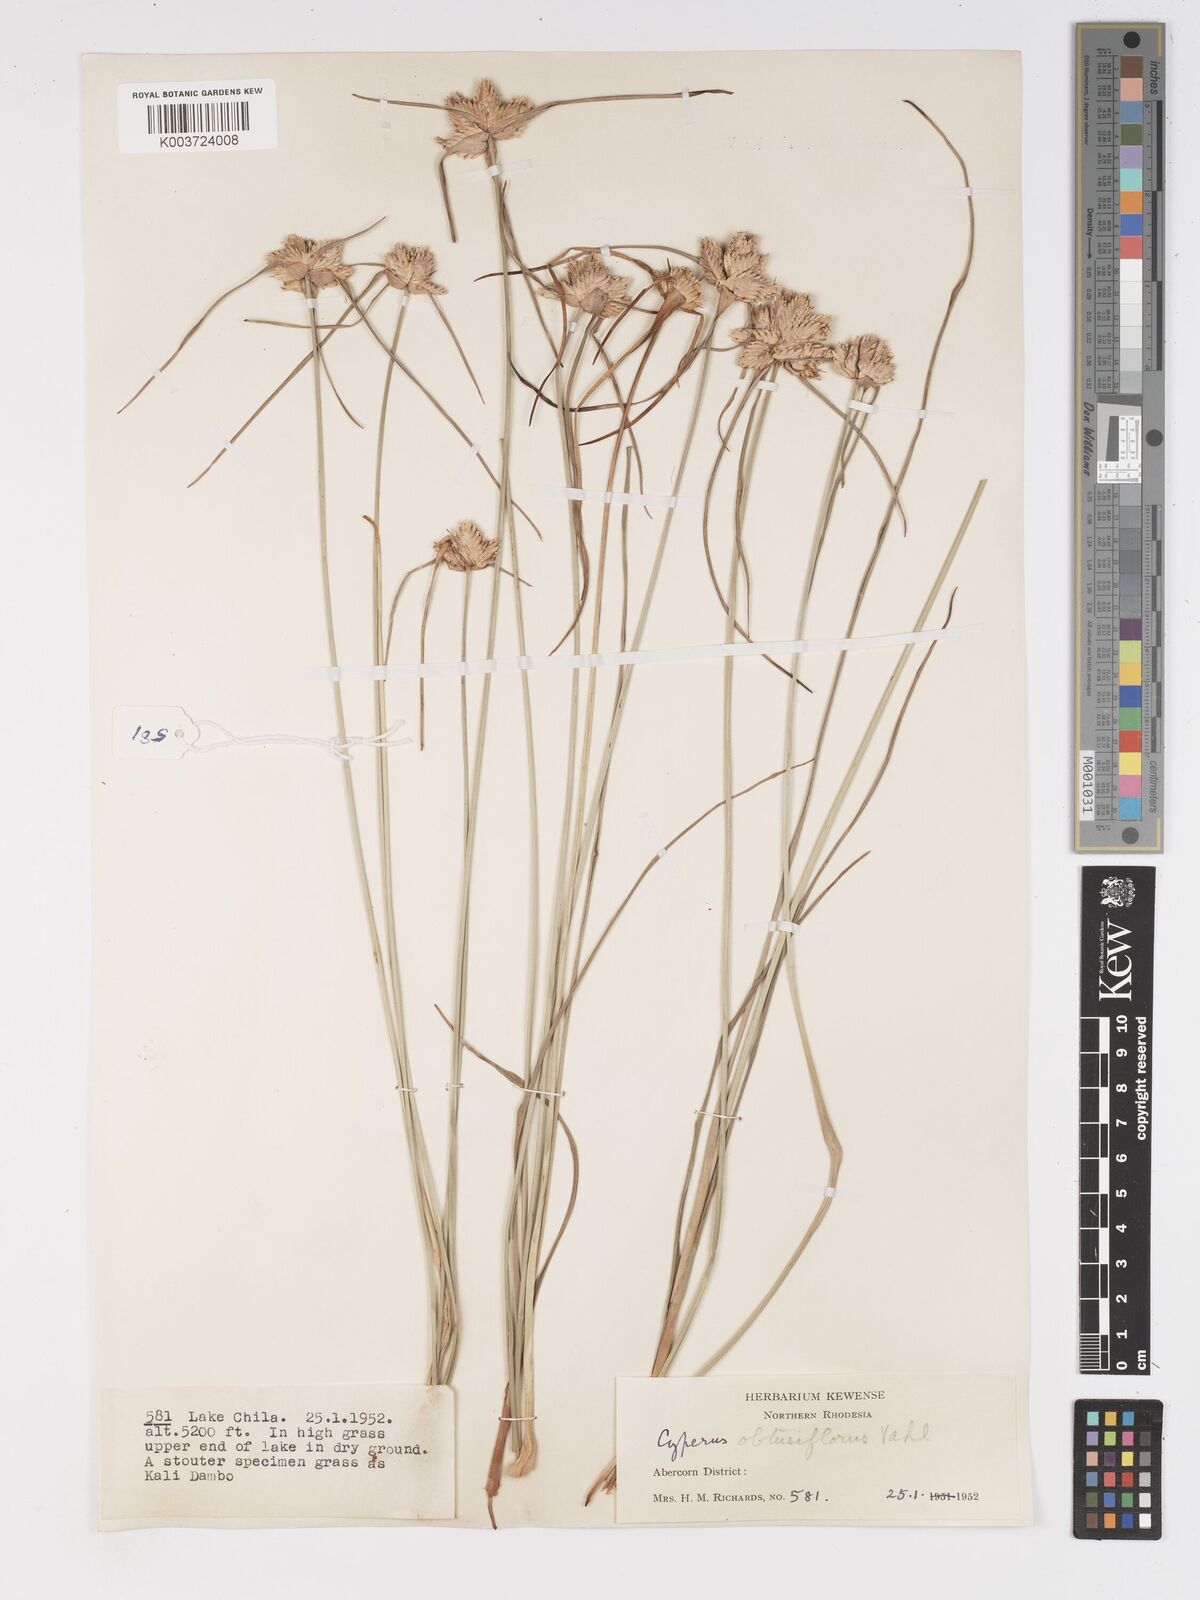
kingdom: Plantae
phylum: Tracheophyta
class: Liliopsida
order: Poales
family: Cyperaceae
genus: Cyperus
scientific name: Cyperus niveus
